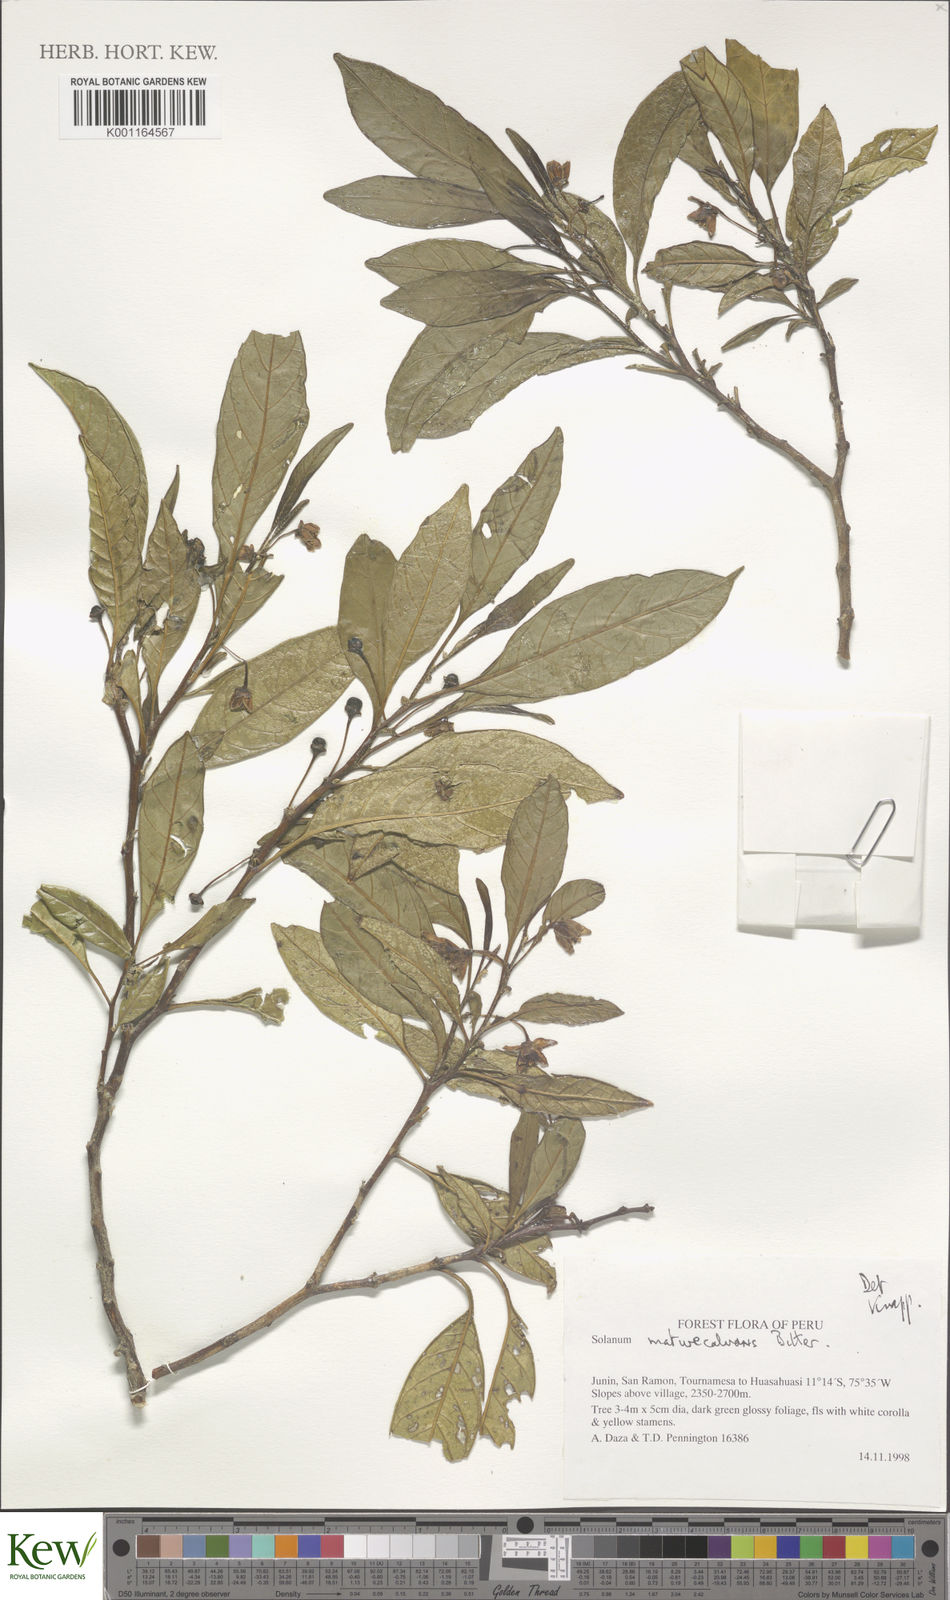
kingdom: Plantae
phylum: Tracheophyta
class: Magnoliopsida
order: Solanales
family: Solanaceae
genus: Solanum
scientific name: Solanum maturecalvans
